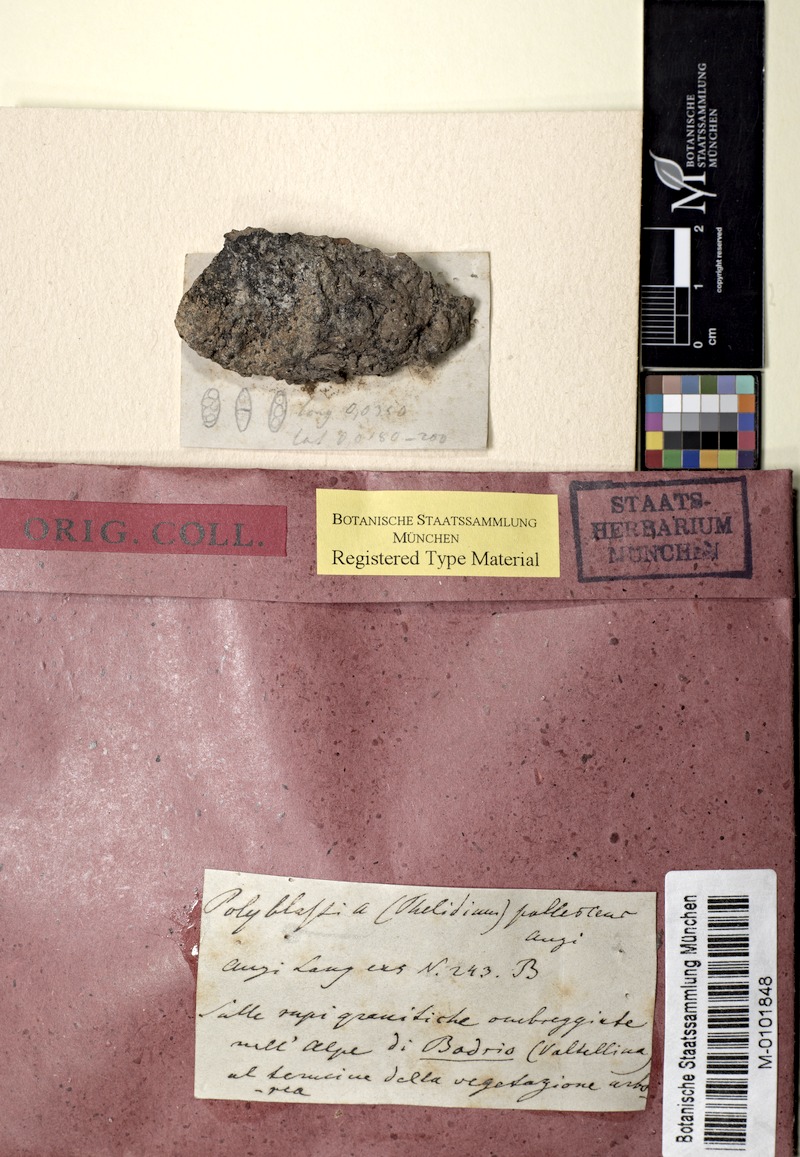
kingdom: Fungi
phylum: Ascomycota
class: Eurotiomycetes
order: Verrucariales
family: Verrucariaceae
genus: Polyblastia
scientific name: Polyblastia cupularis
